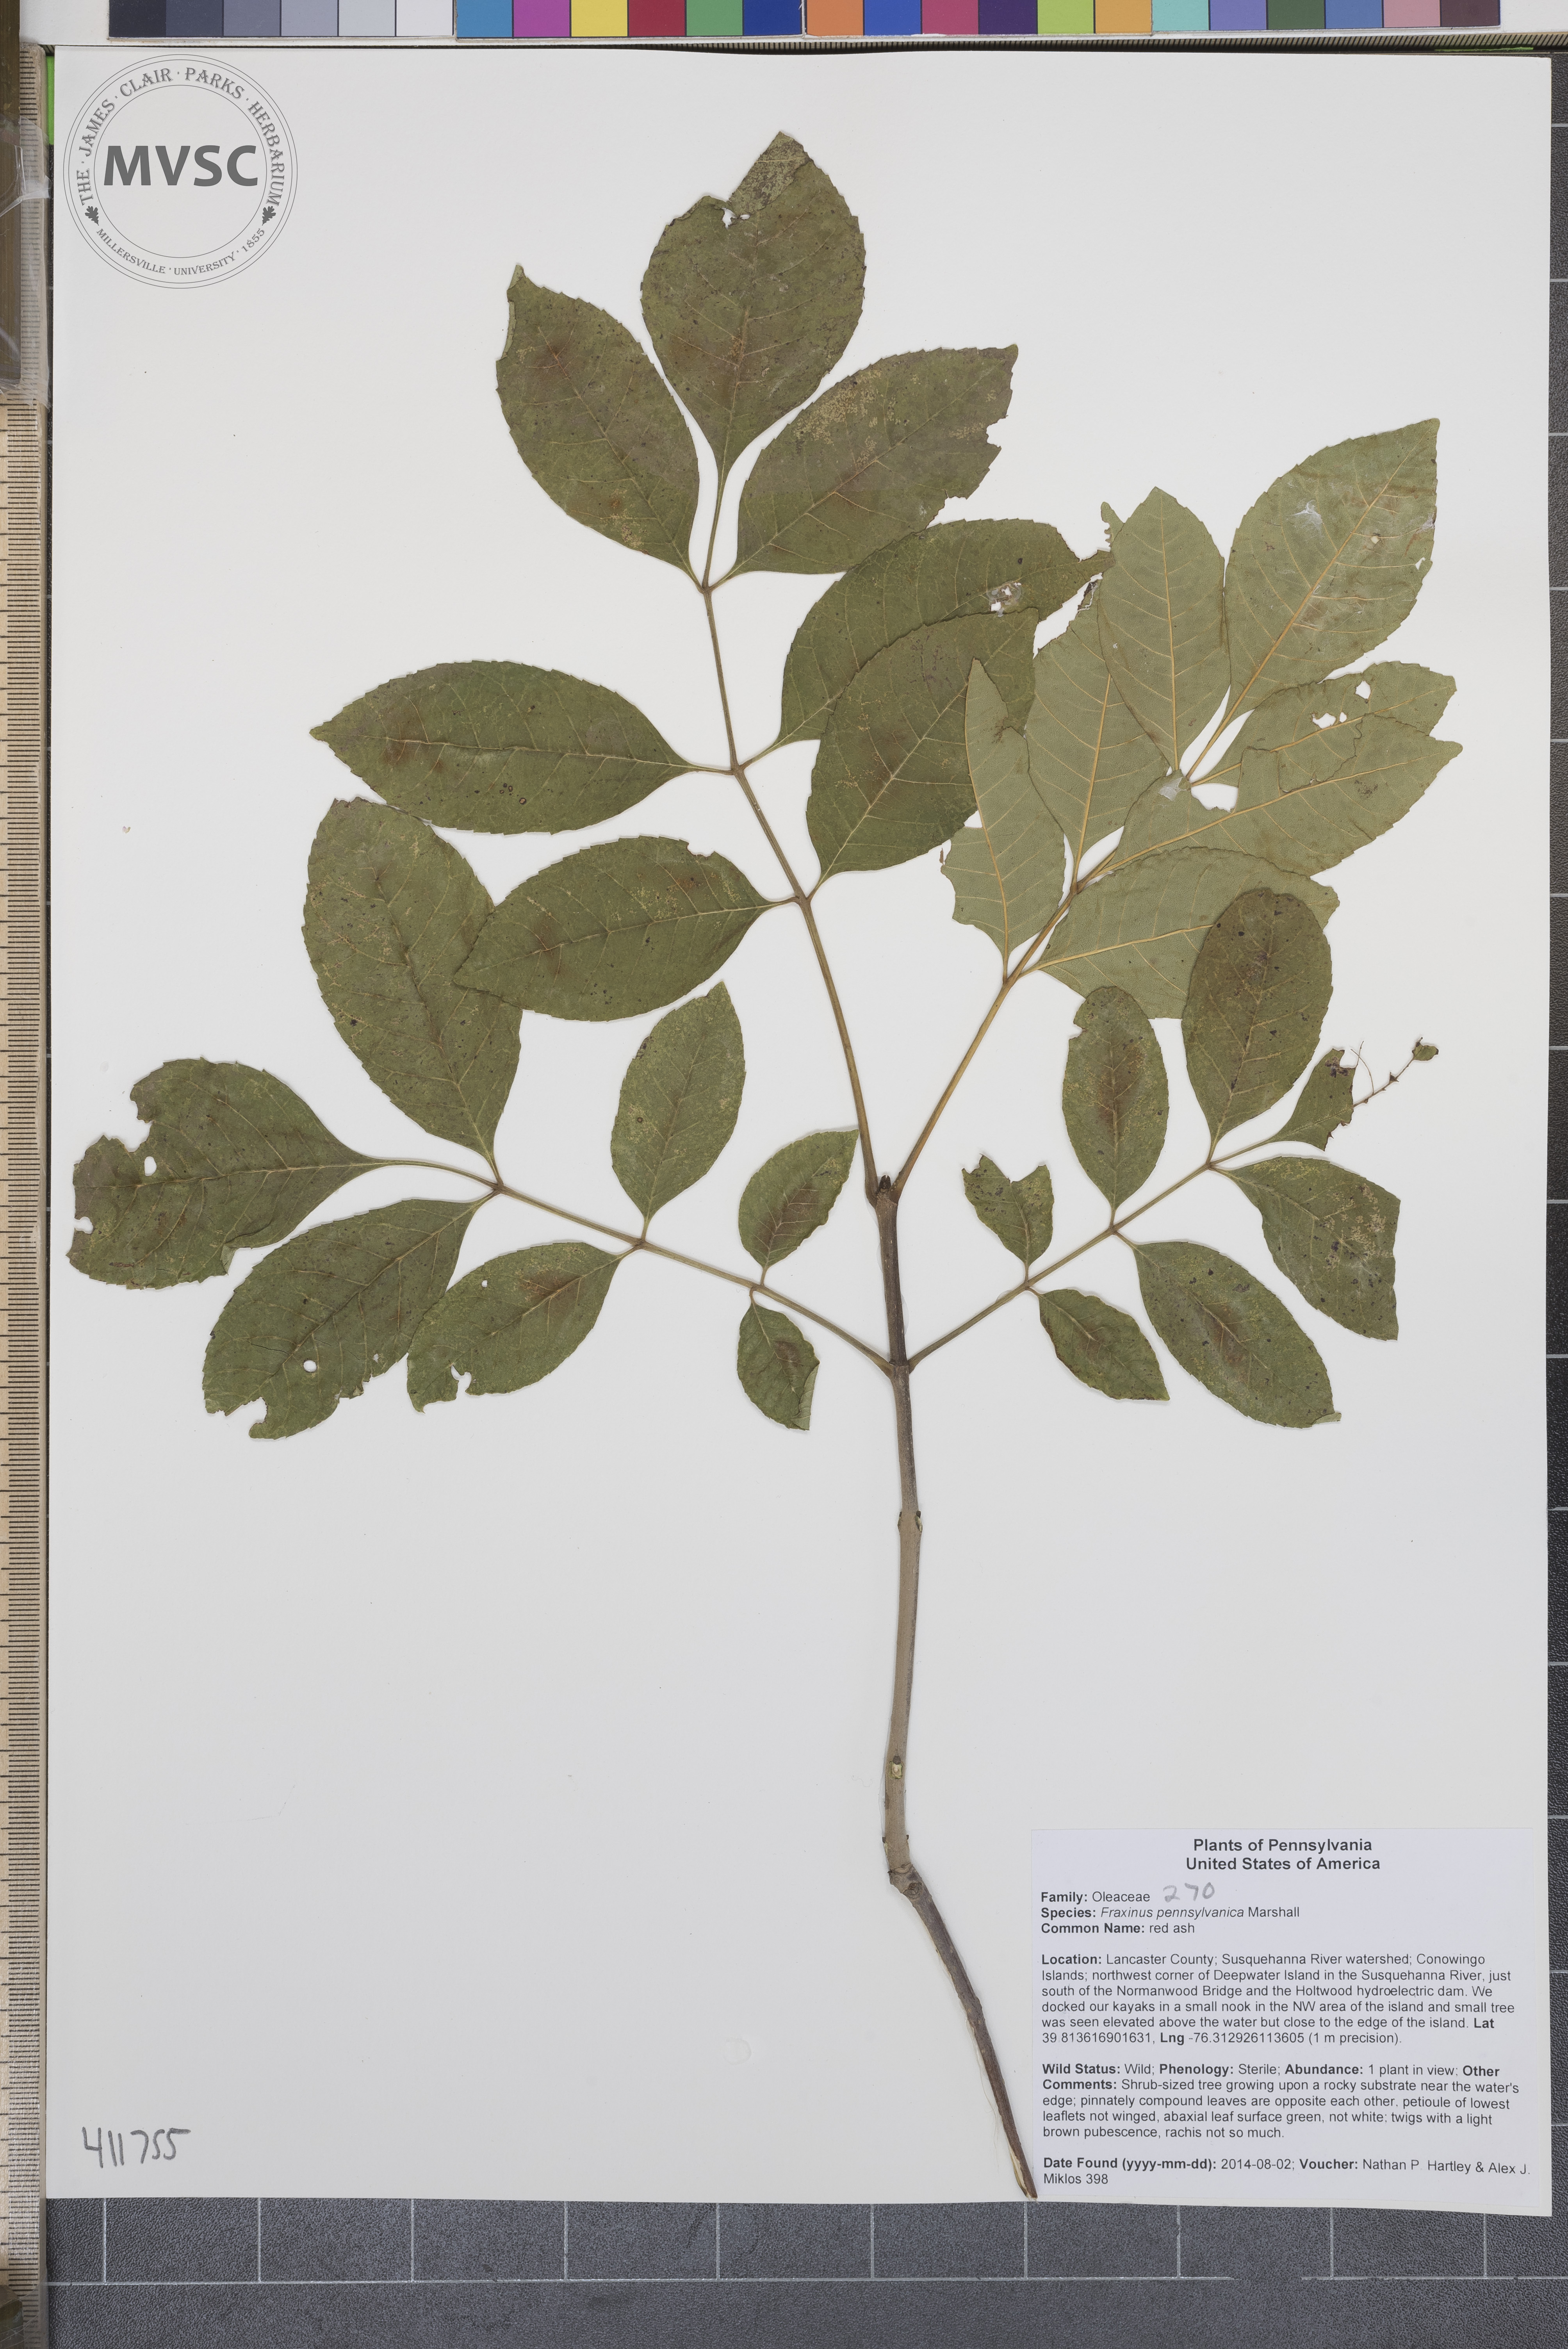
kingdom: Plantae
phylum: Tracheophyta
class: Magnoliopsida
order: Lamiales
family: Oleaceae
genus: Fraxinus
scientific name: Fraxinus pennsylvanica
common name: Red ash
